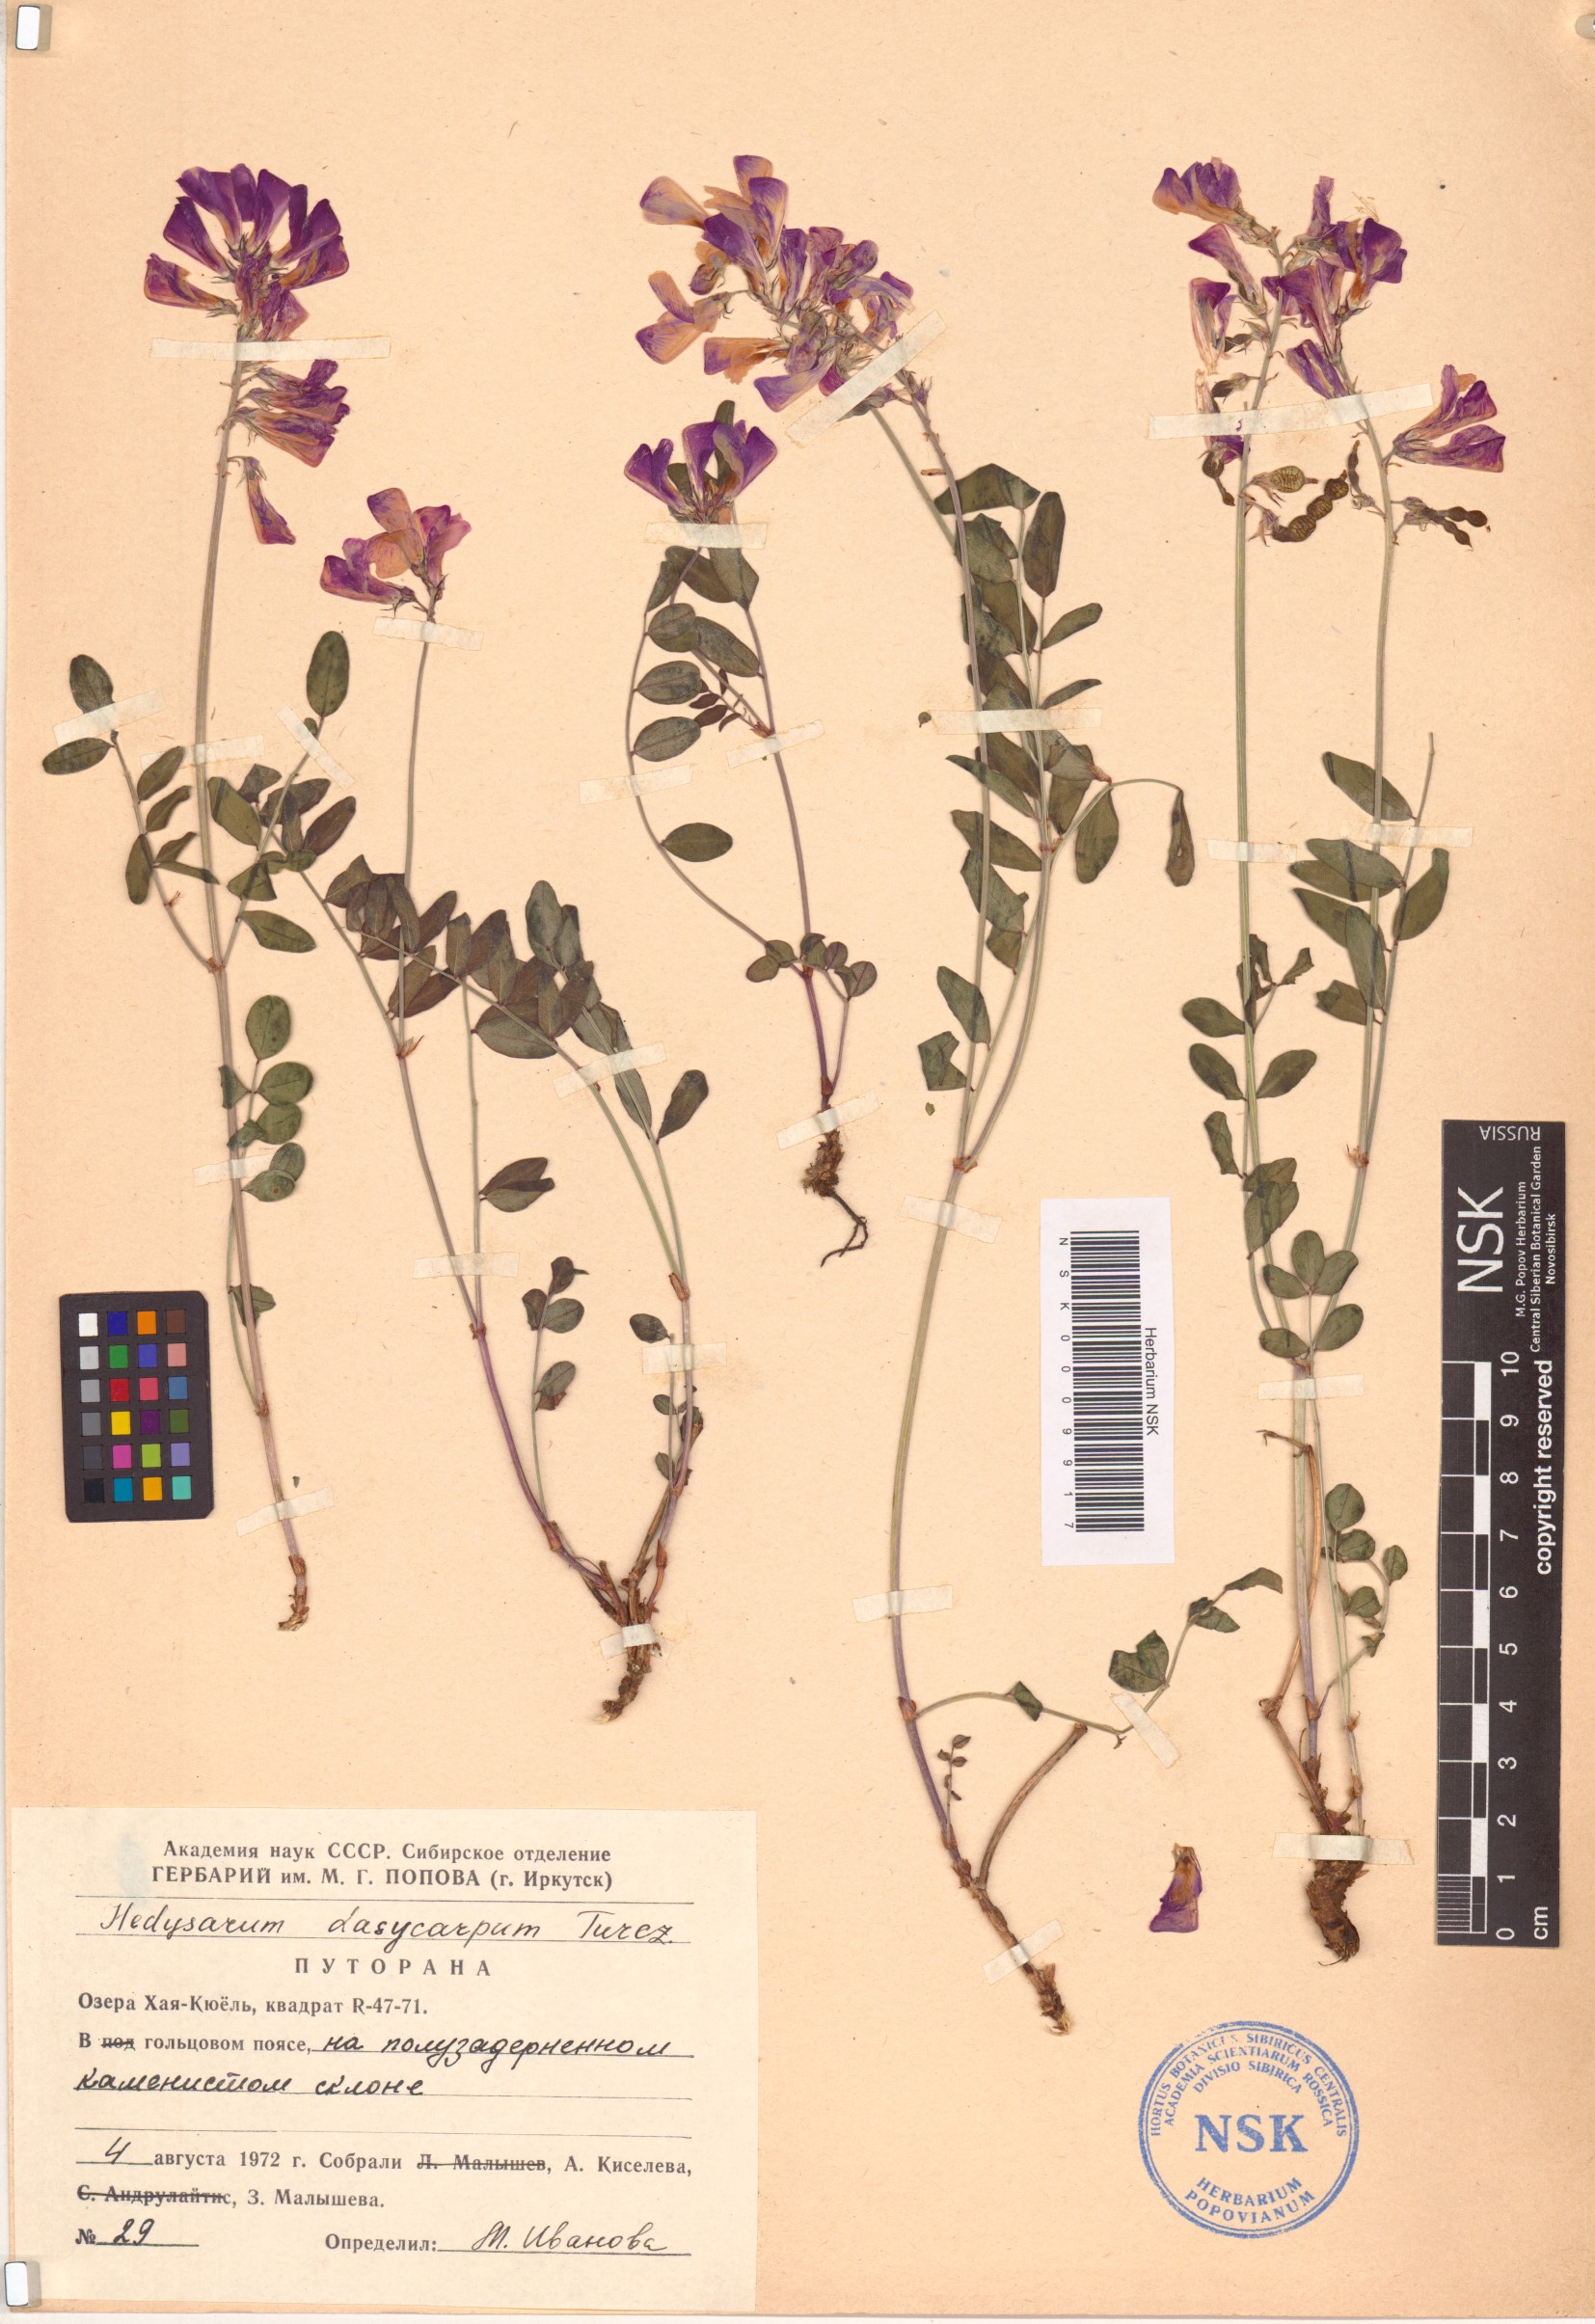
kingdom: Plantae
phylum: Tracheophyta
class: Magnoliopsida
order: Fabales
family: Fabaceae
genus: Hedysarum
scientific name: Hedysarum dasycarpum
